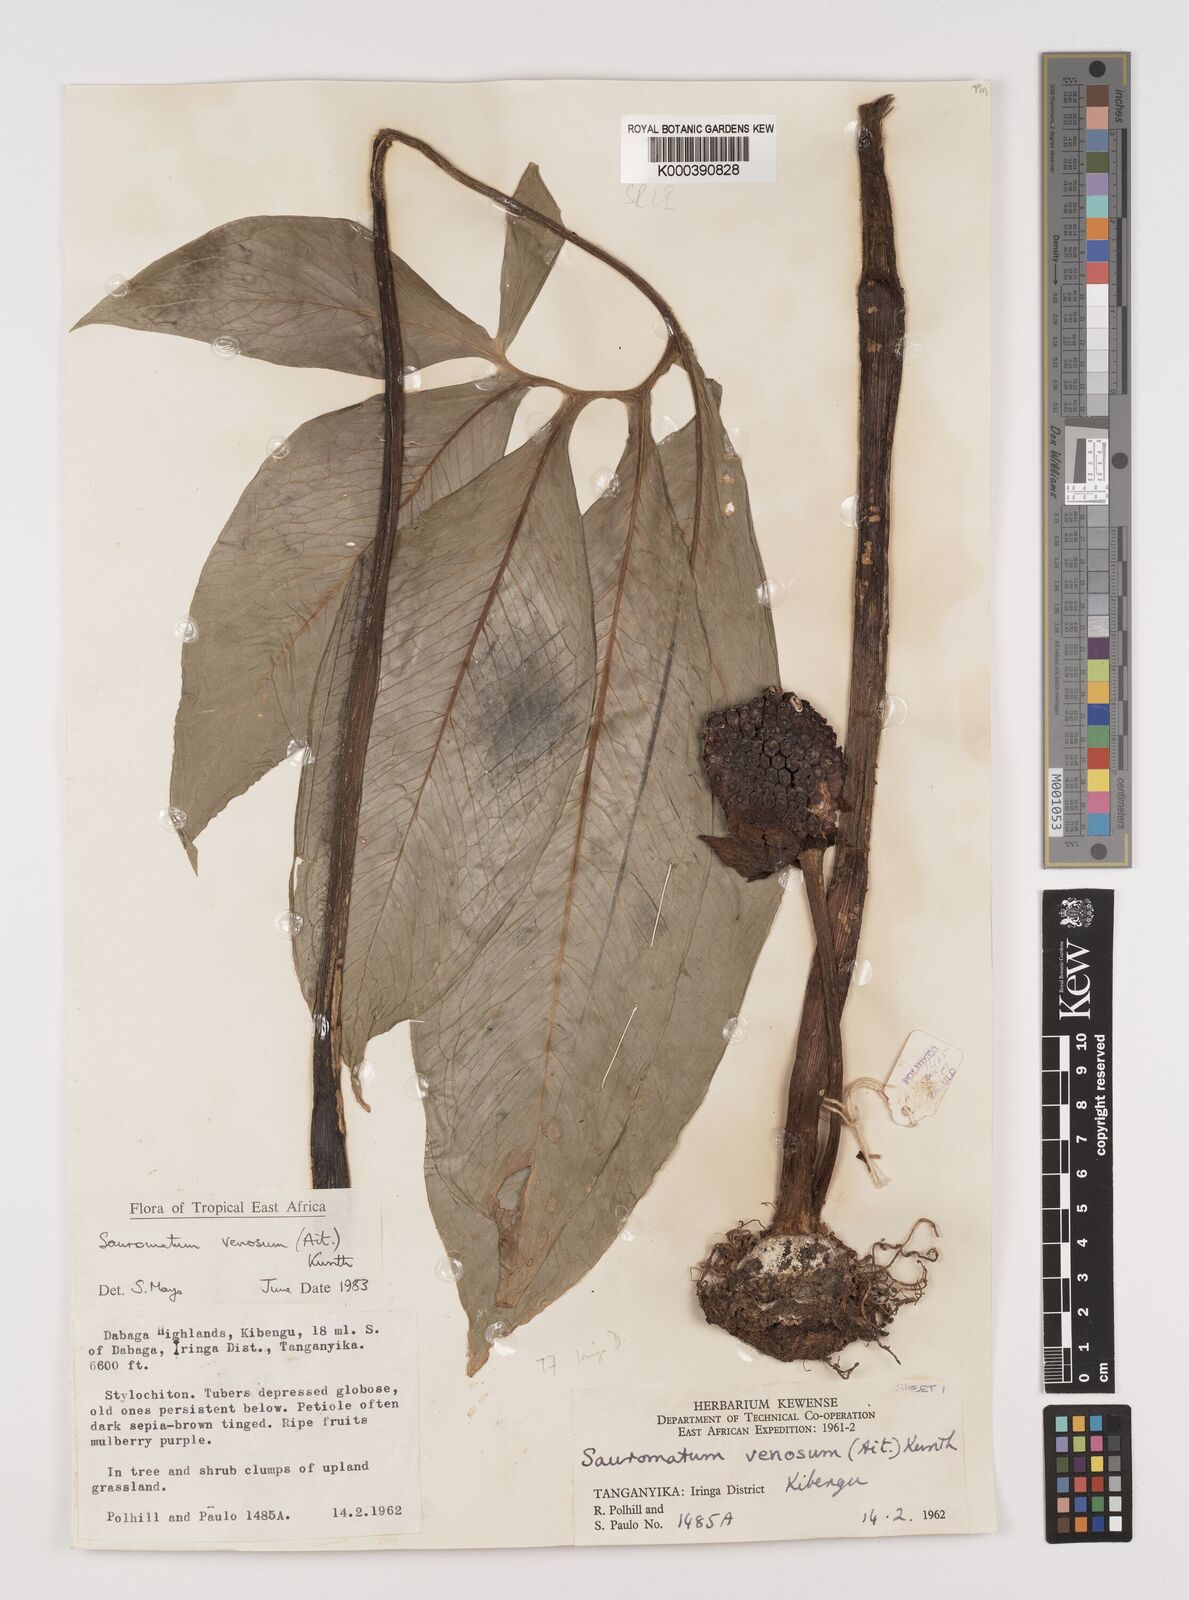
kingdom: Plantae
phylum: Tracheophyta
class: Liliopsida
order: Alismatales
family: Araceae
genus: Sauromatum
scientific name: Sauromatum venosum
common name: Voodoo lily
